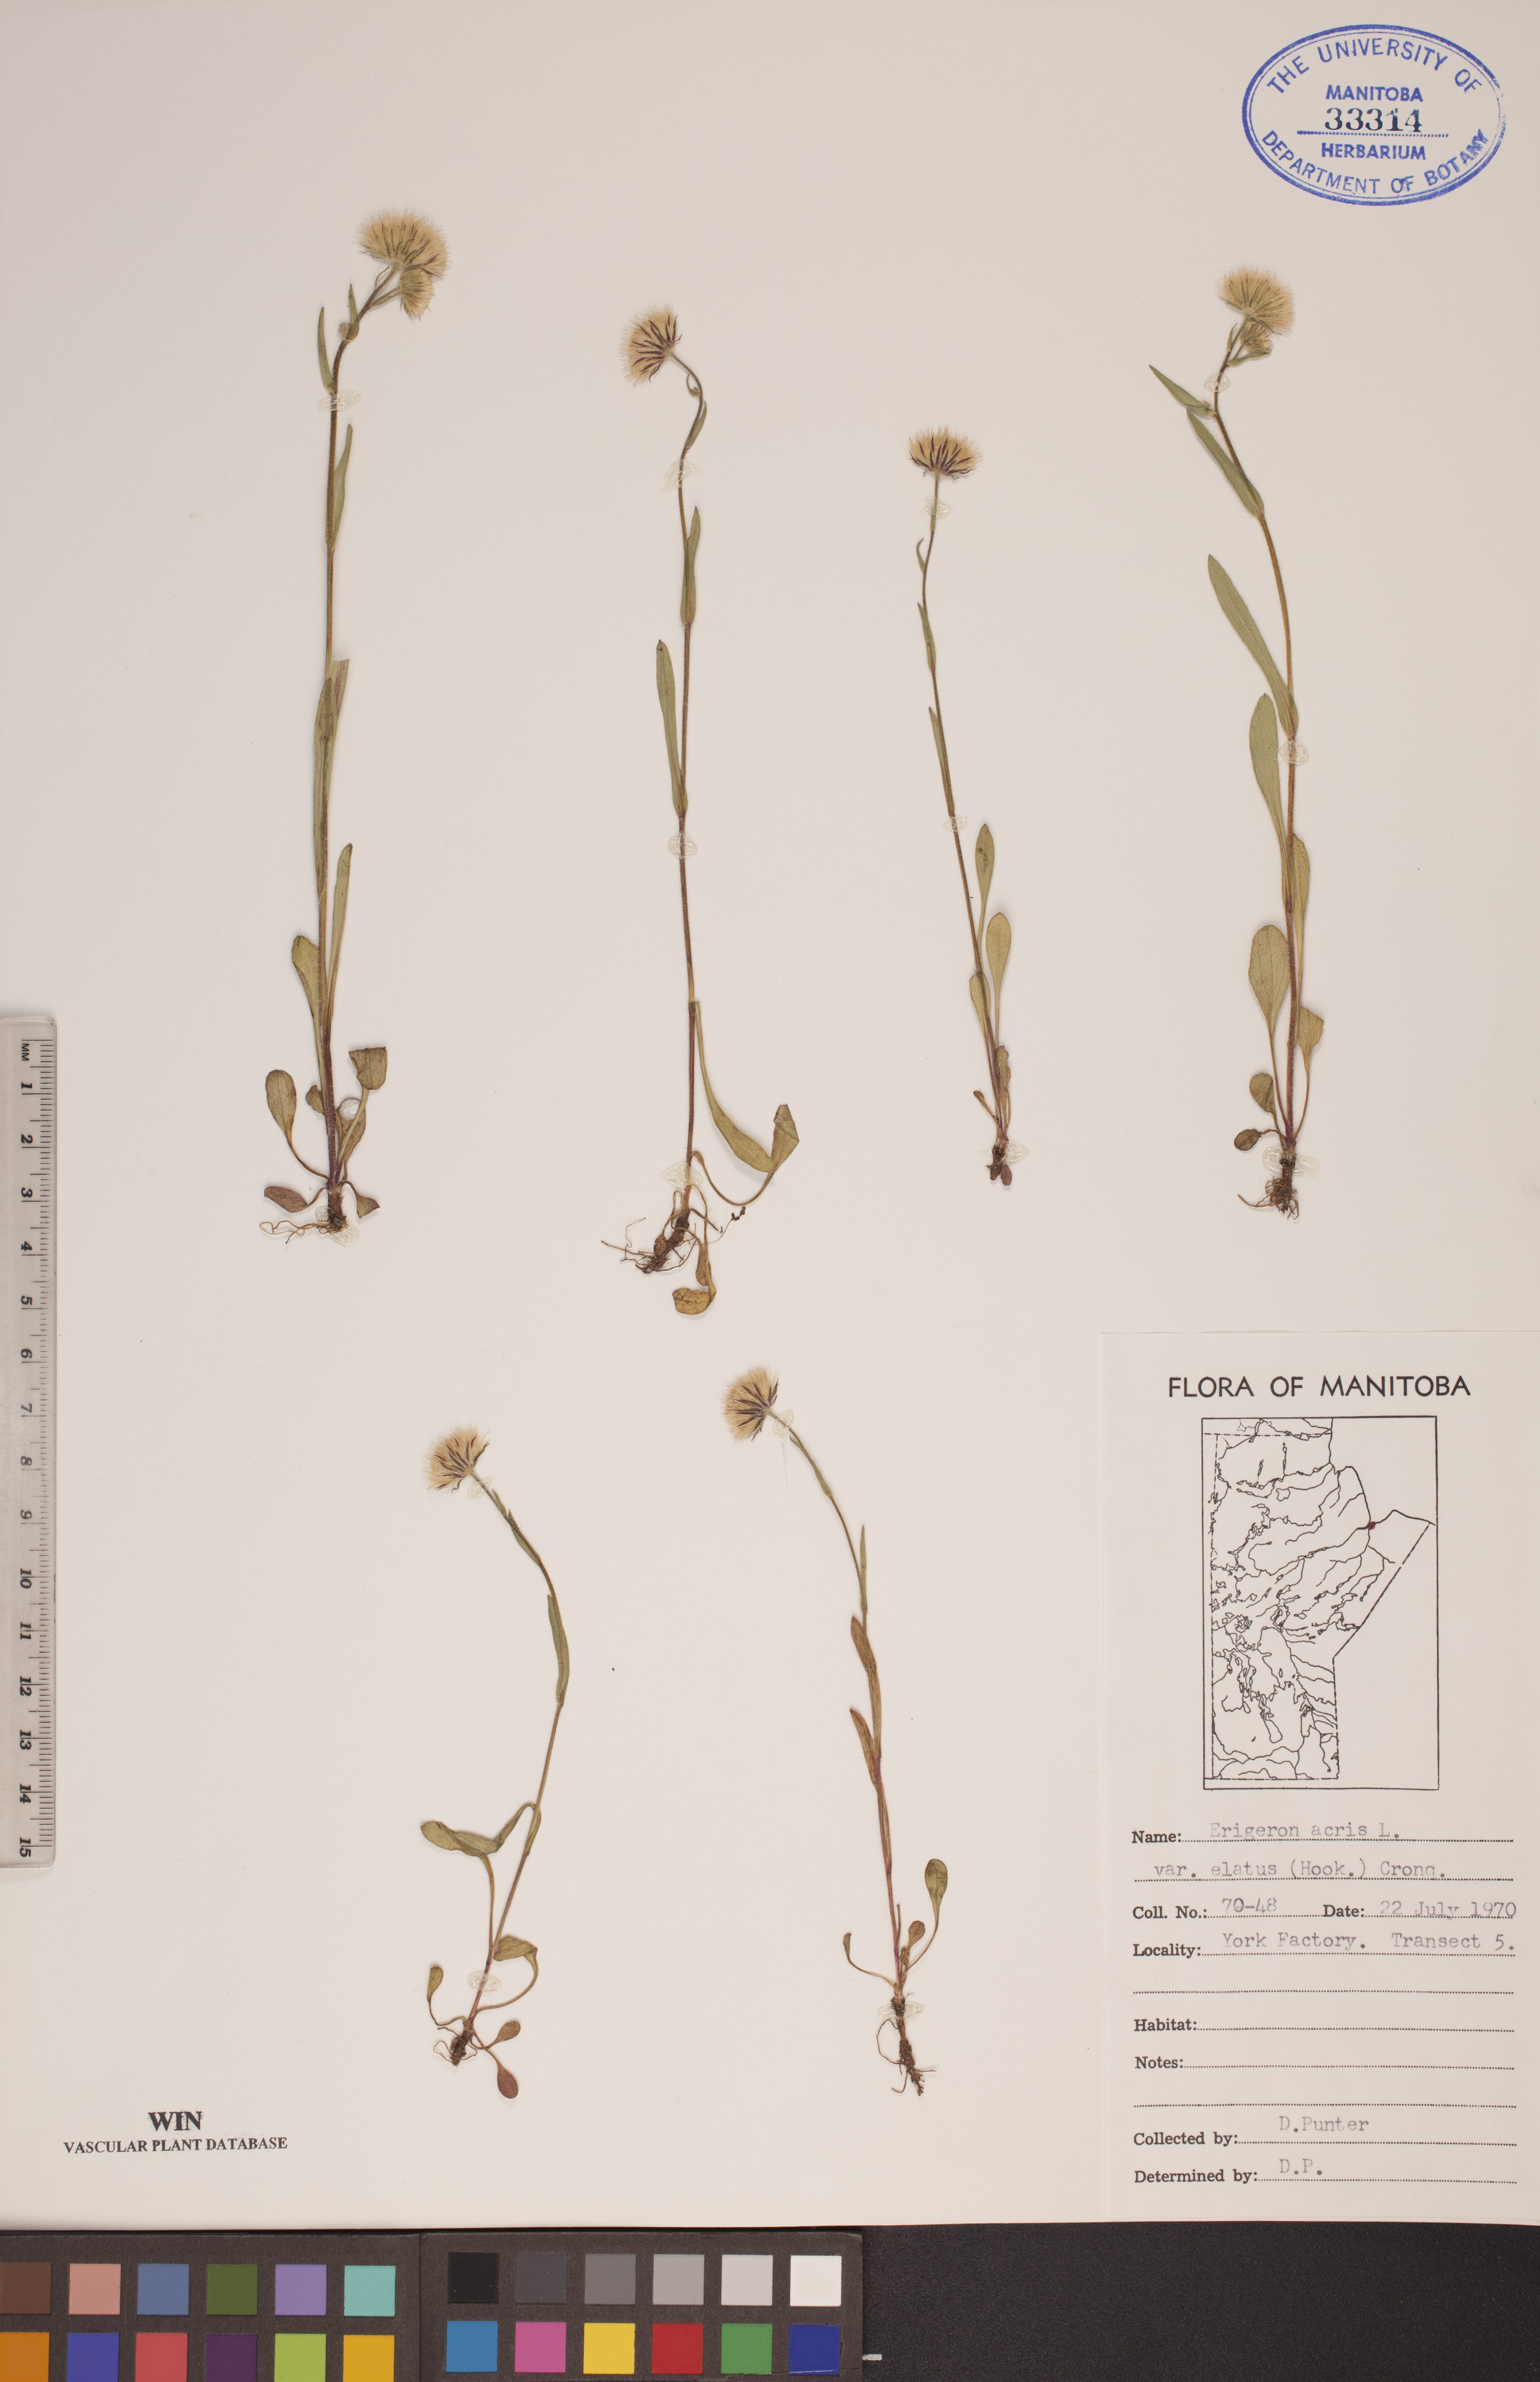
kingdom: Plantae
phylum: Tracheophyta
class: Magnoliopsida
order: Asterales
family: Asteraceae
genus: Erigeron
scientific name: Erigeron elatus
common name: Swamp fleabane
